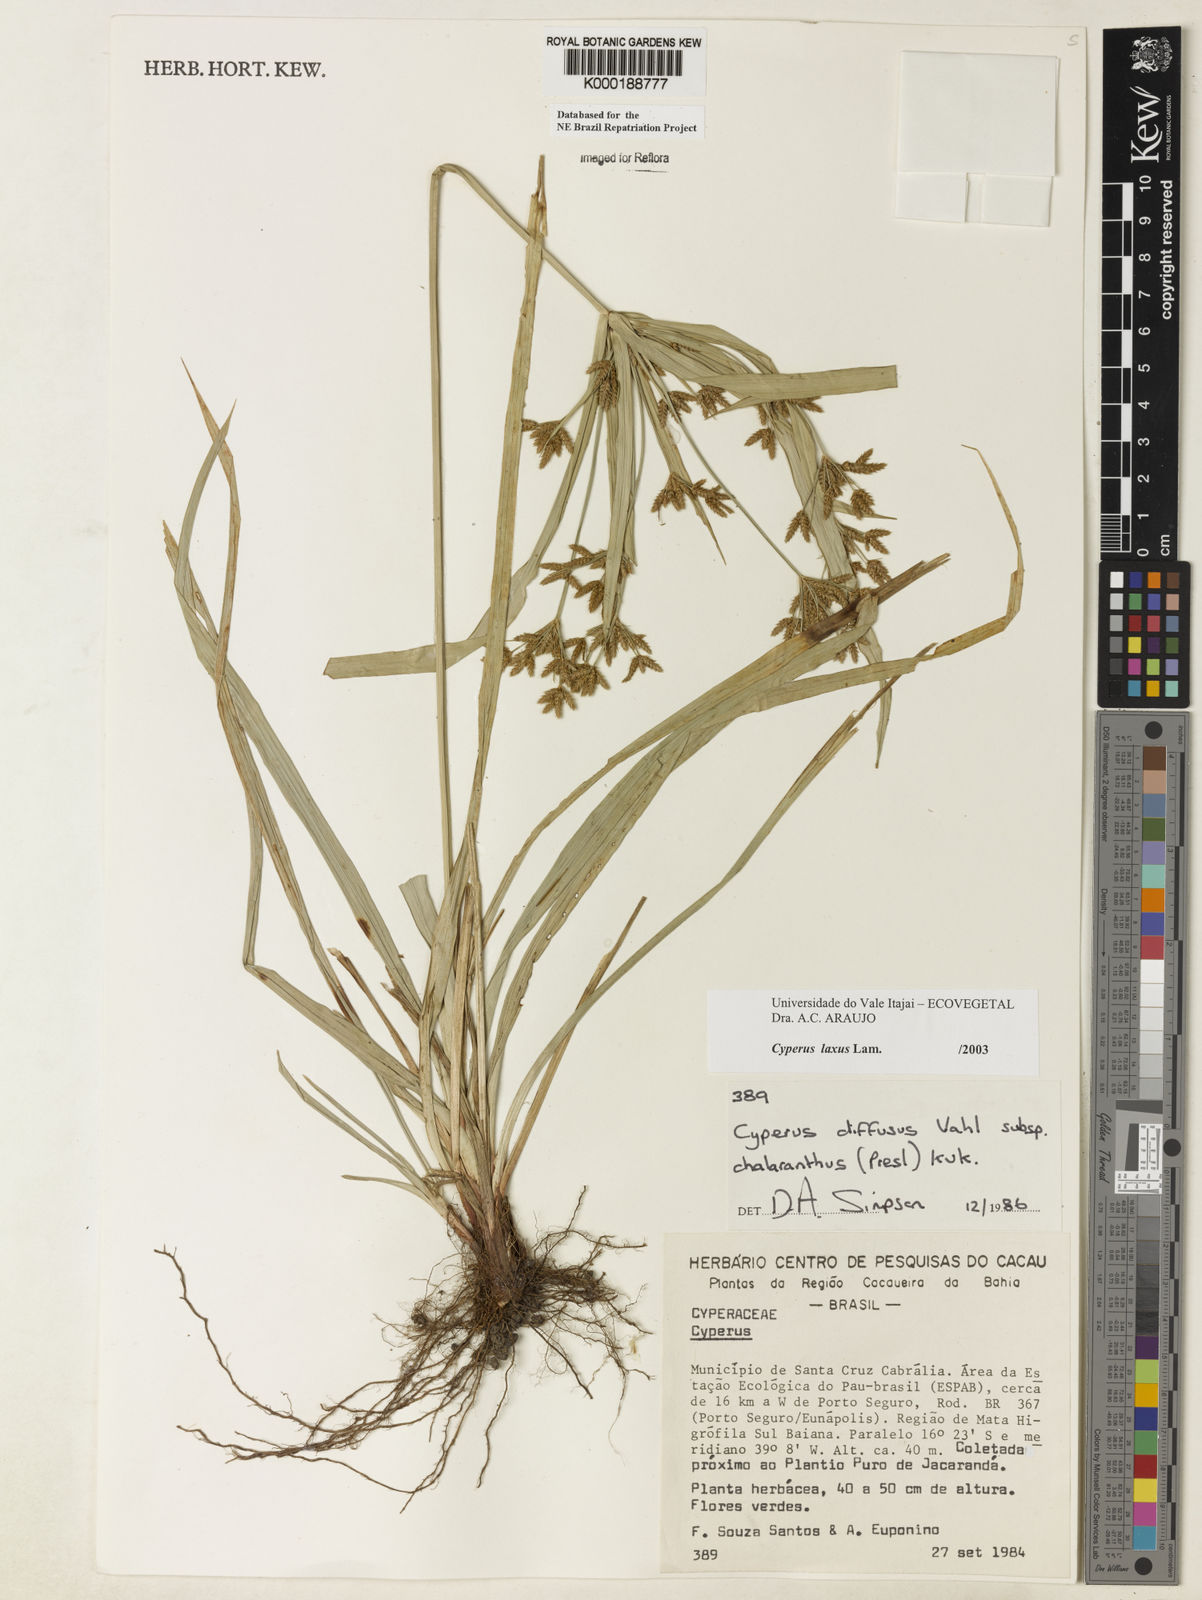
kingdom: Plantae
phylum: Tracheophyta
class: Liliopsida
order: Poales
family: Cyperaceae
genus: Cyperus
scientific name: Cyperus laxus
